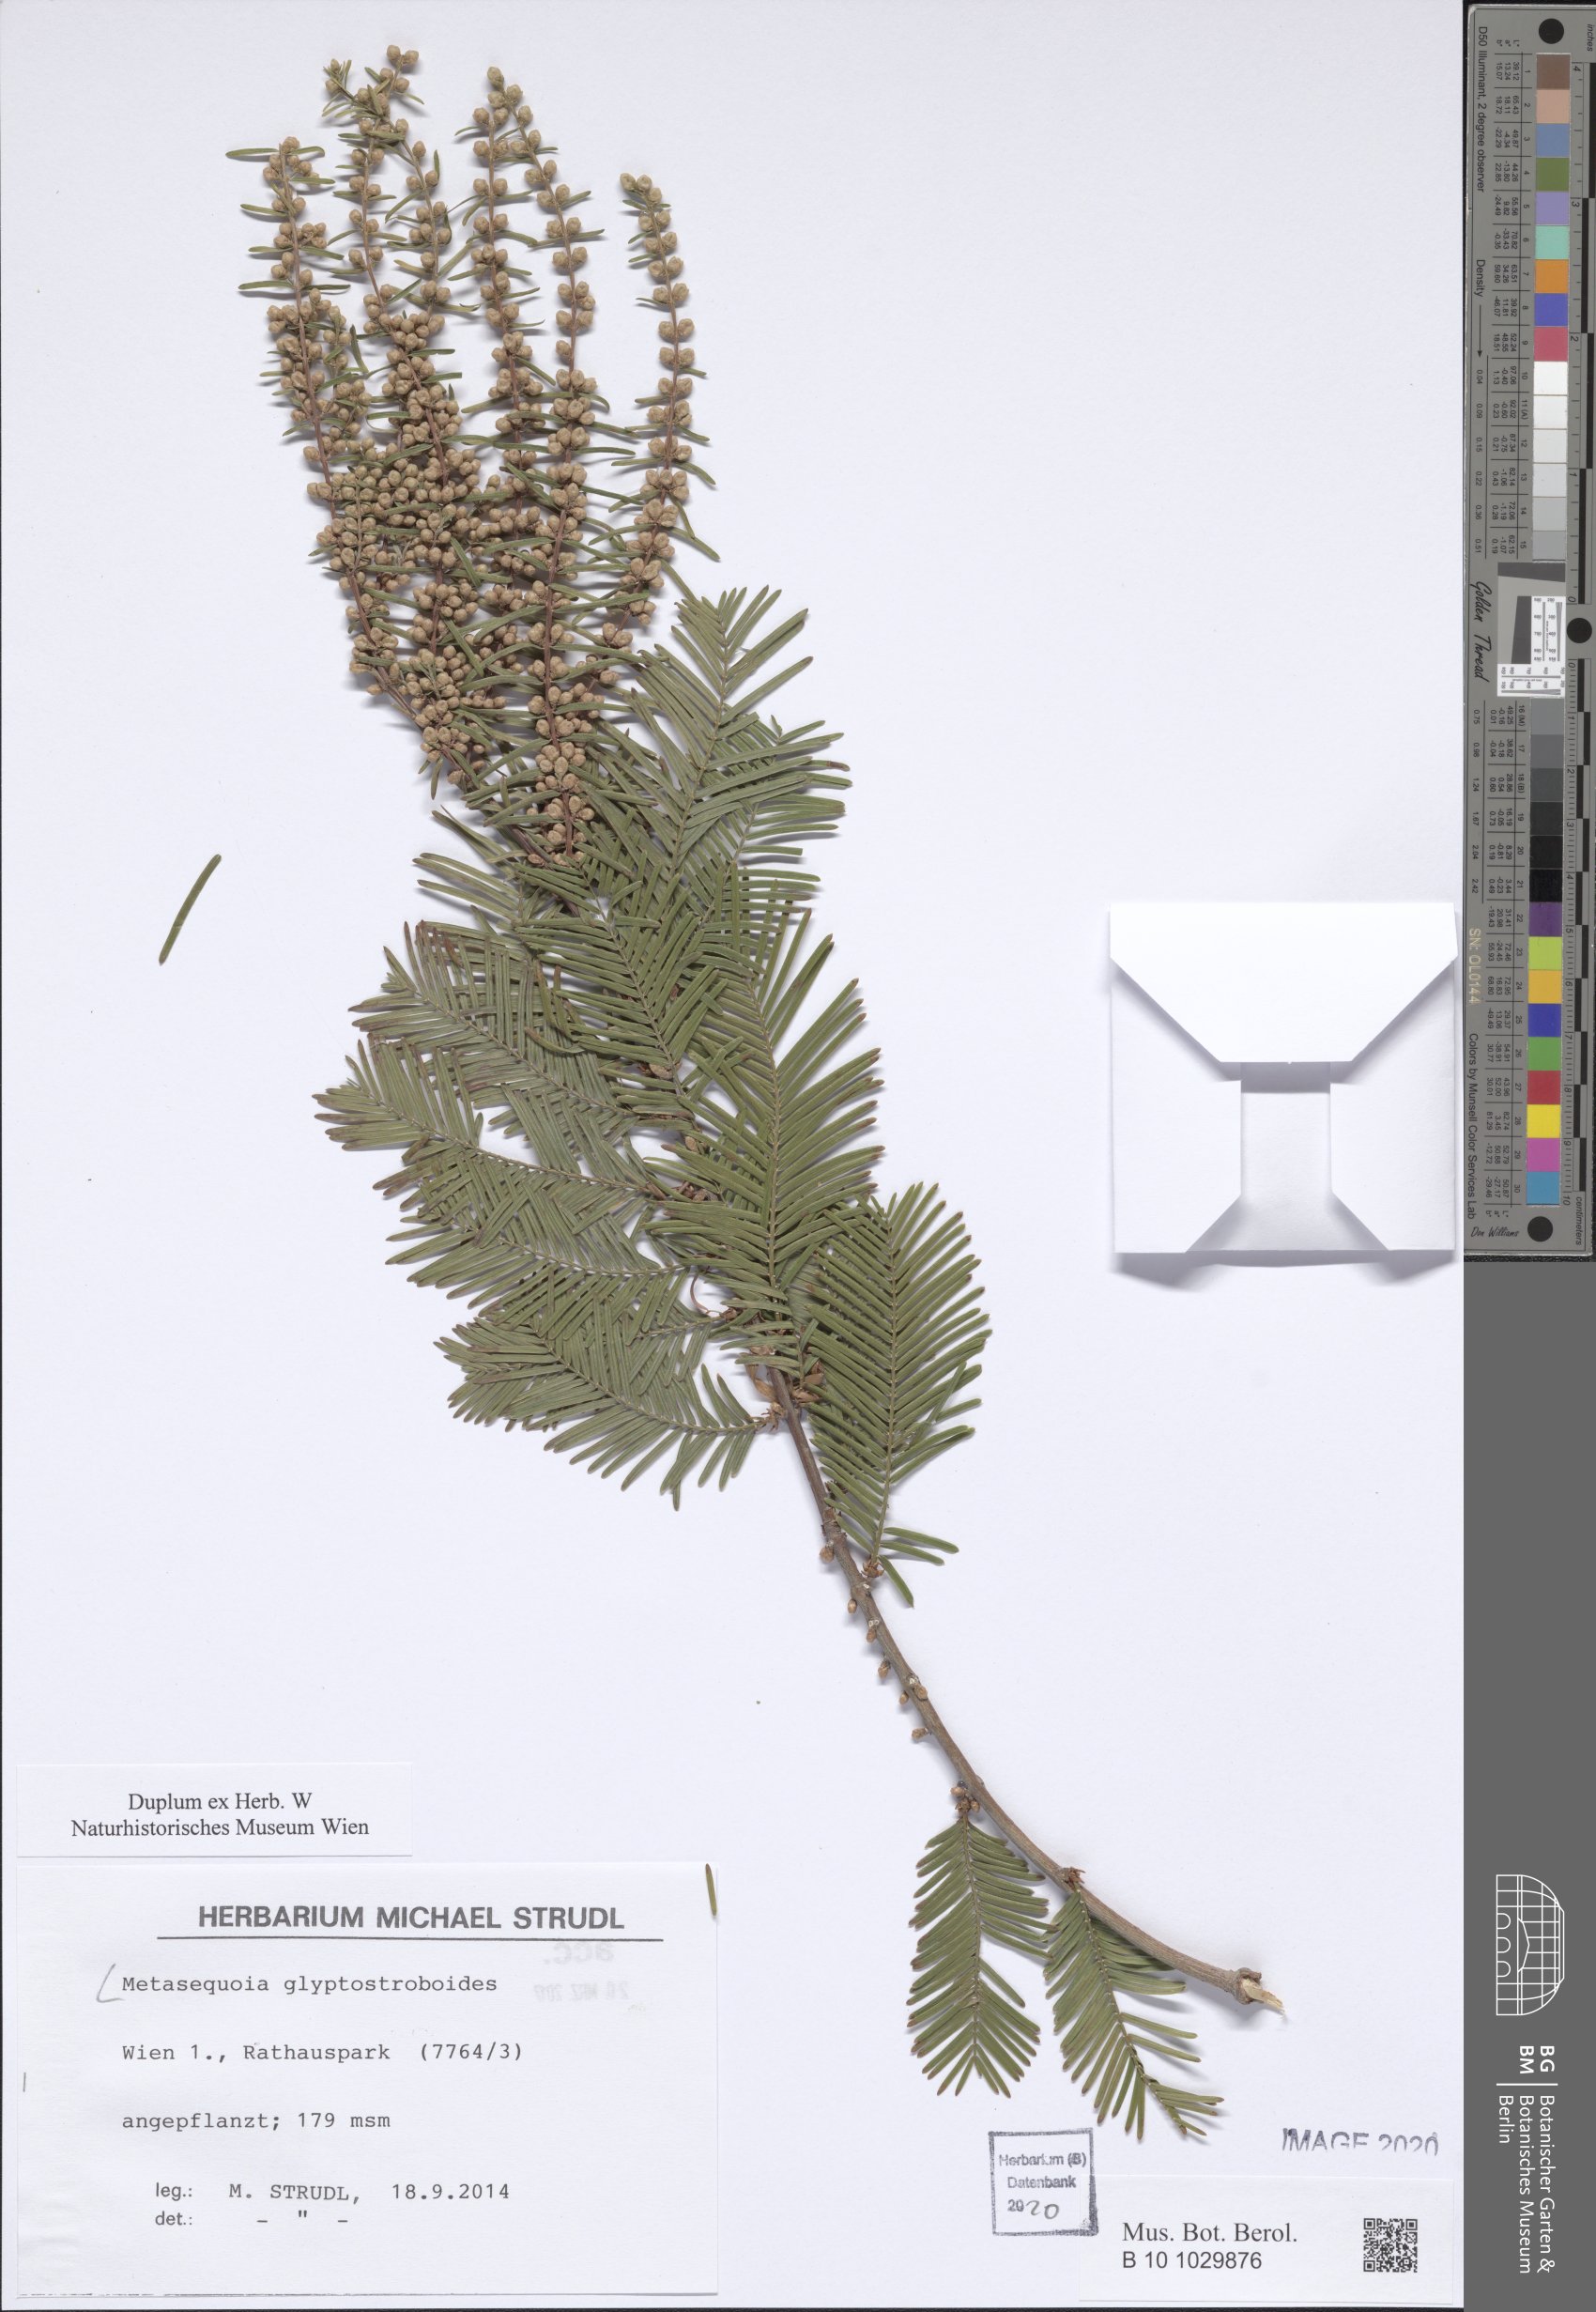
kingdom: Plantae
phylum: Tracheophyta
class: Pinopsida
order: Pinales
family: Cupressaceae
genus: Metasequoia
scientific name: Metasequoia glyptostroboides
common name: Dawn redwood
